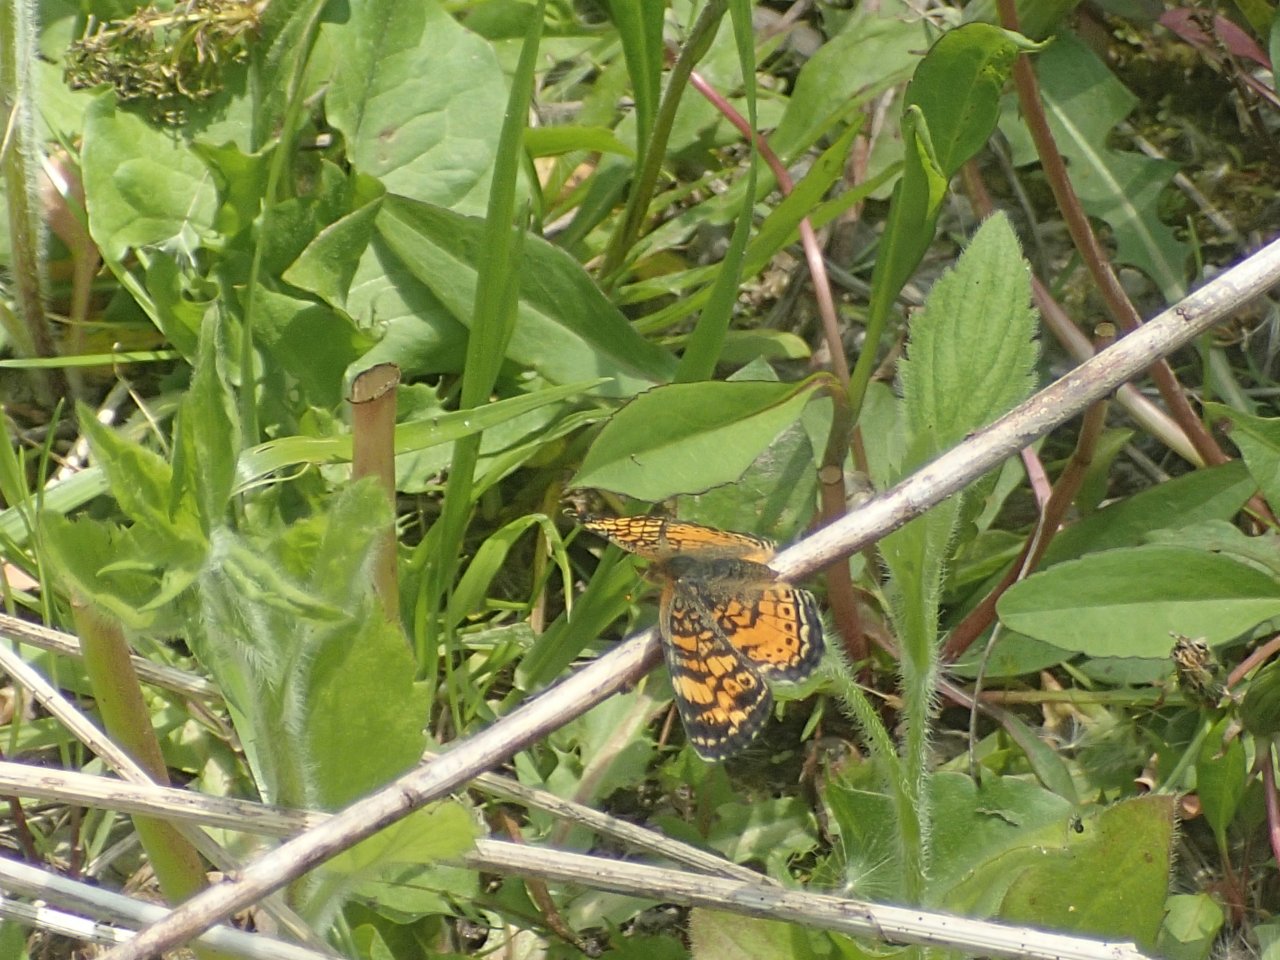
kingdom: Animalia
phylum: Arthropoda
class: Insecta
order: Lepidoptera
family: Nymphalidae
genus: Phyciodes
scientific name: Phyciodes tharos
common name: Northern Crescent
